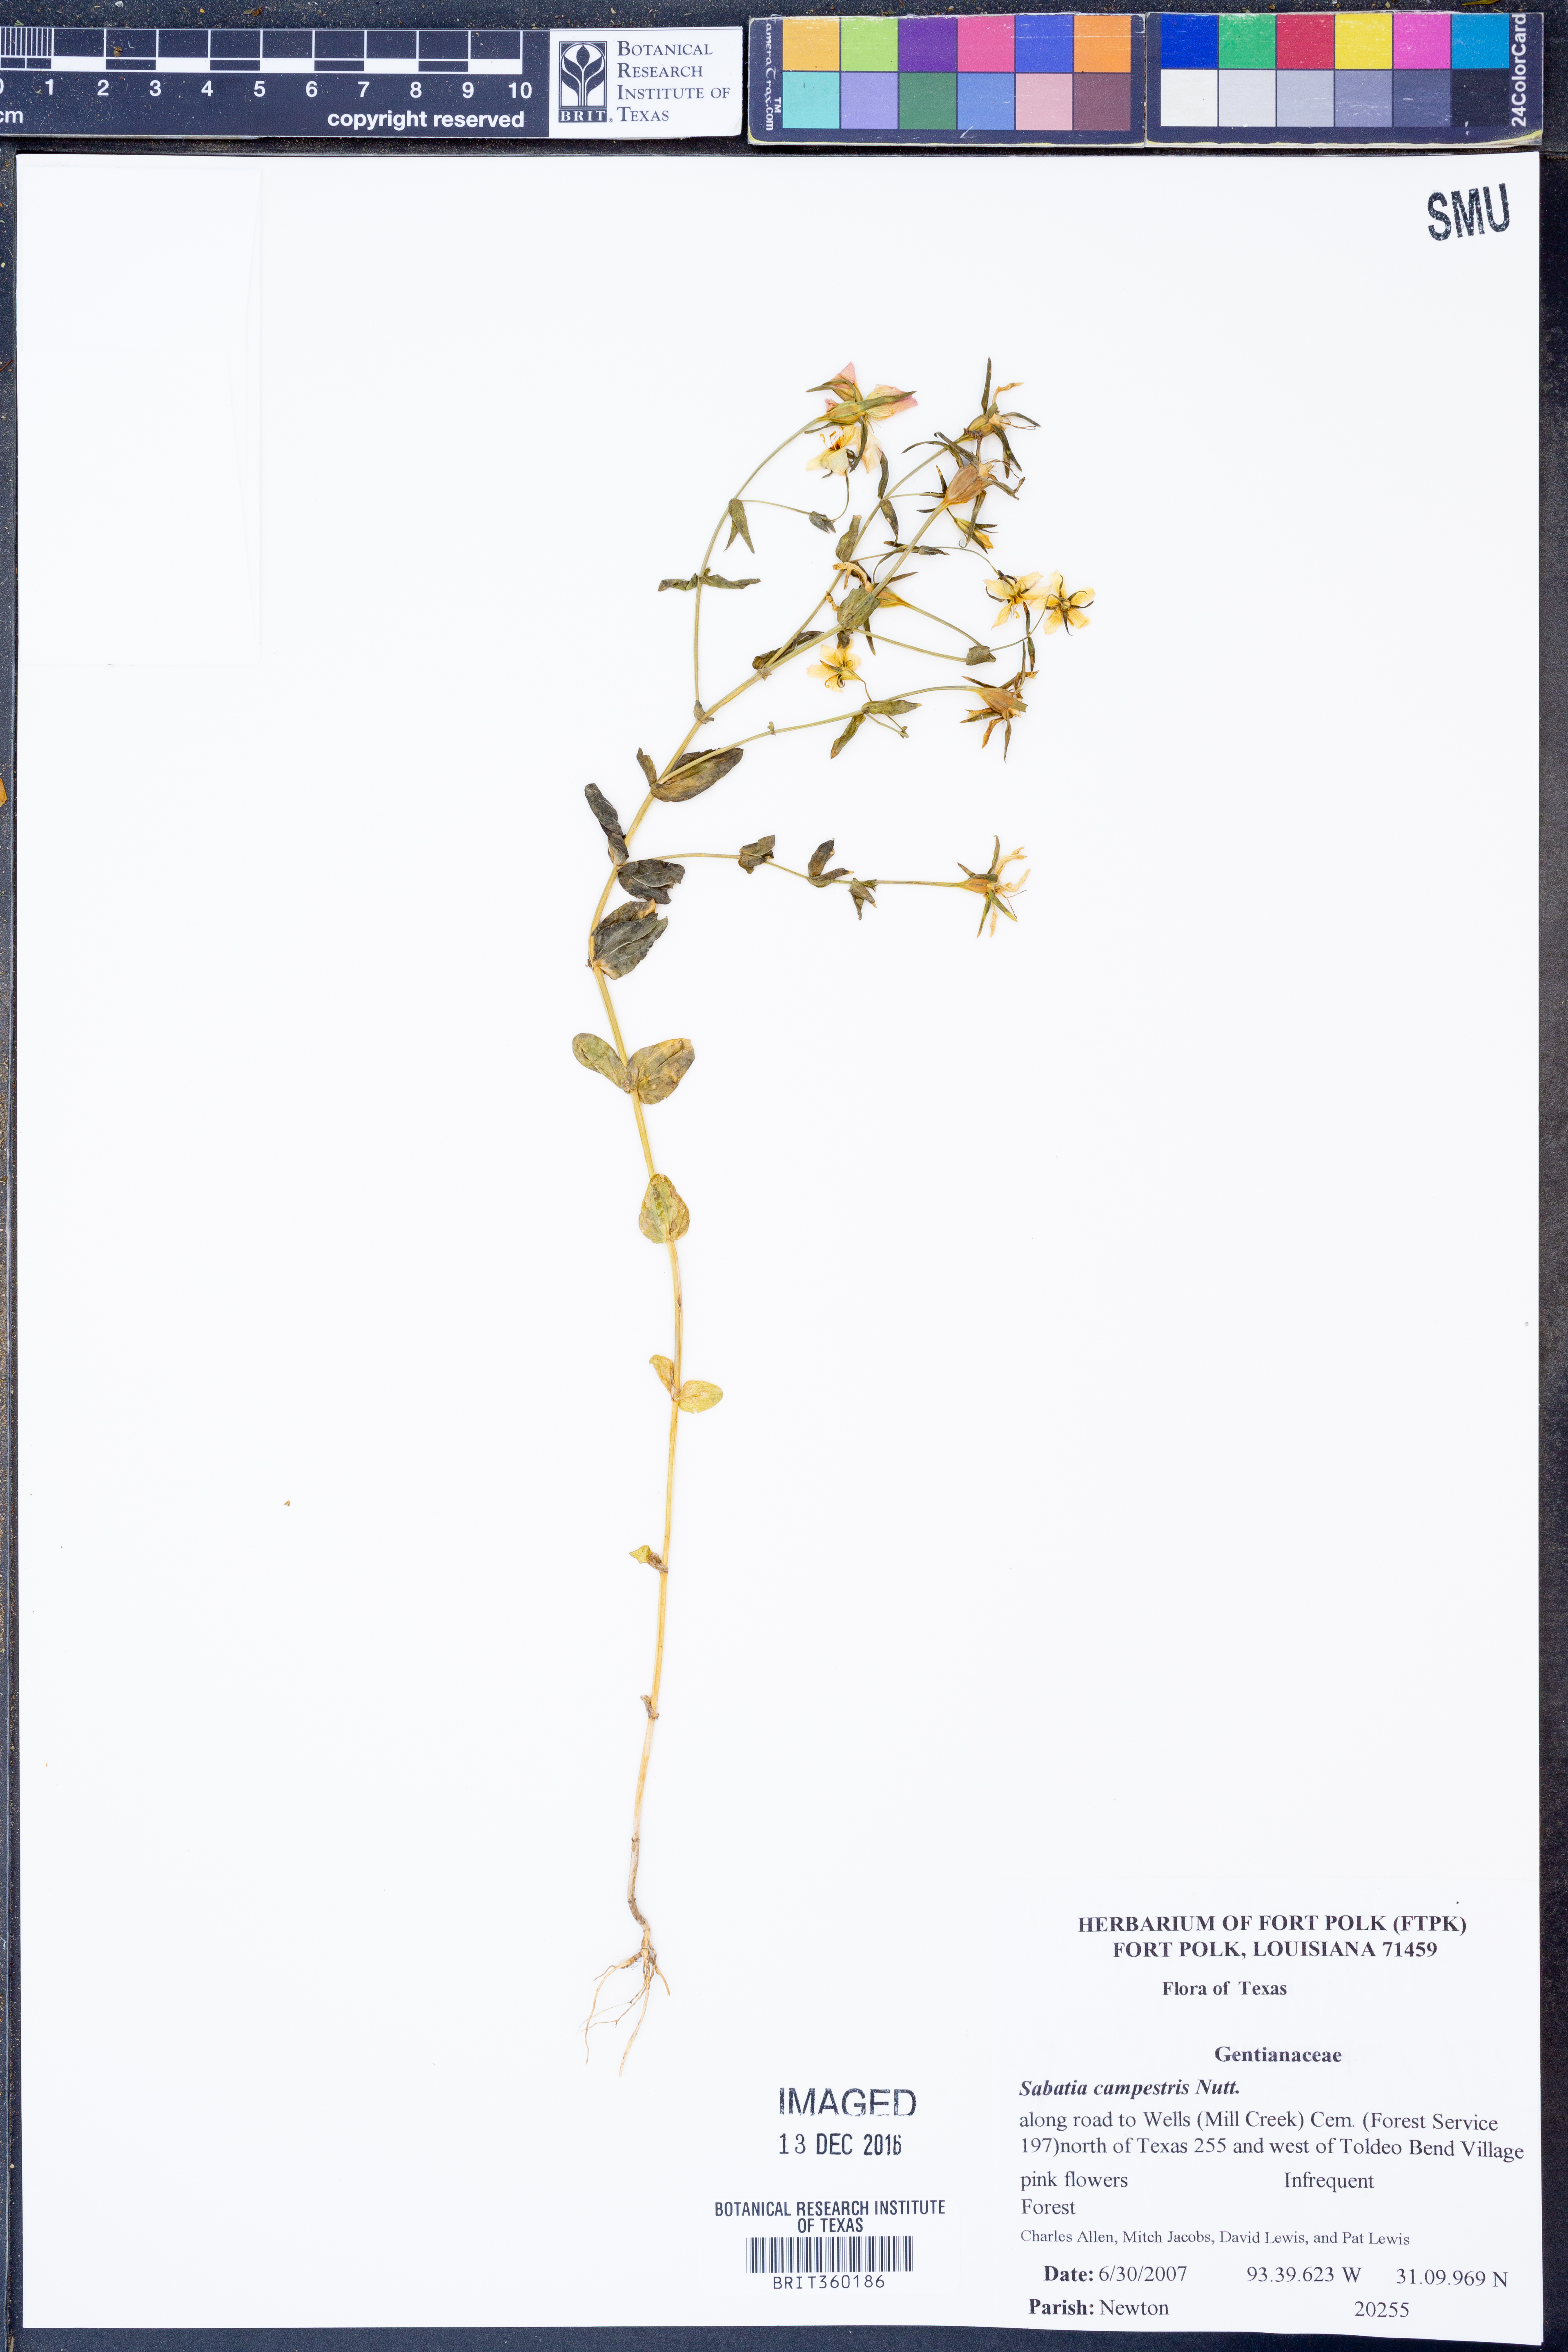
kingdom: Plantae
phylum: Tracheophyta
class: Magnoliopsida
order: Gentianales
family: Gentianaceae
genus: Sabatia
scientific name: Sabatia campestris
